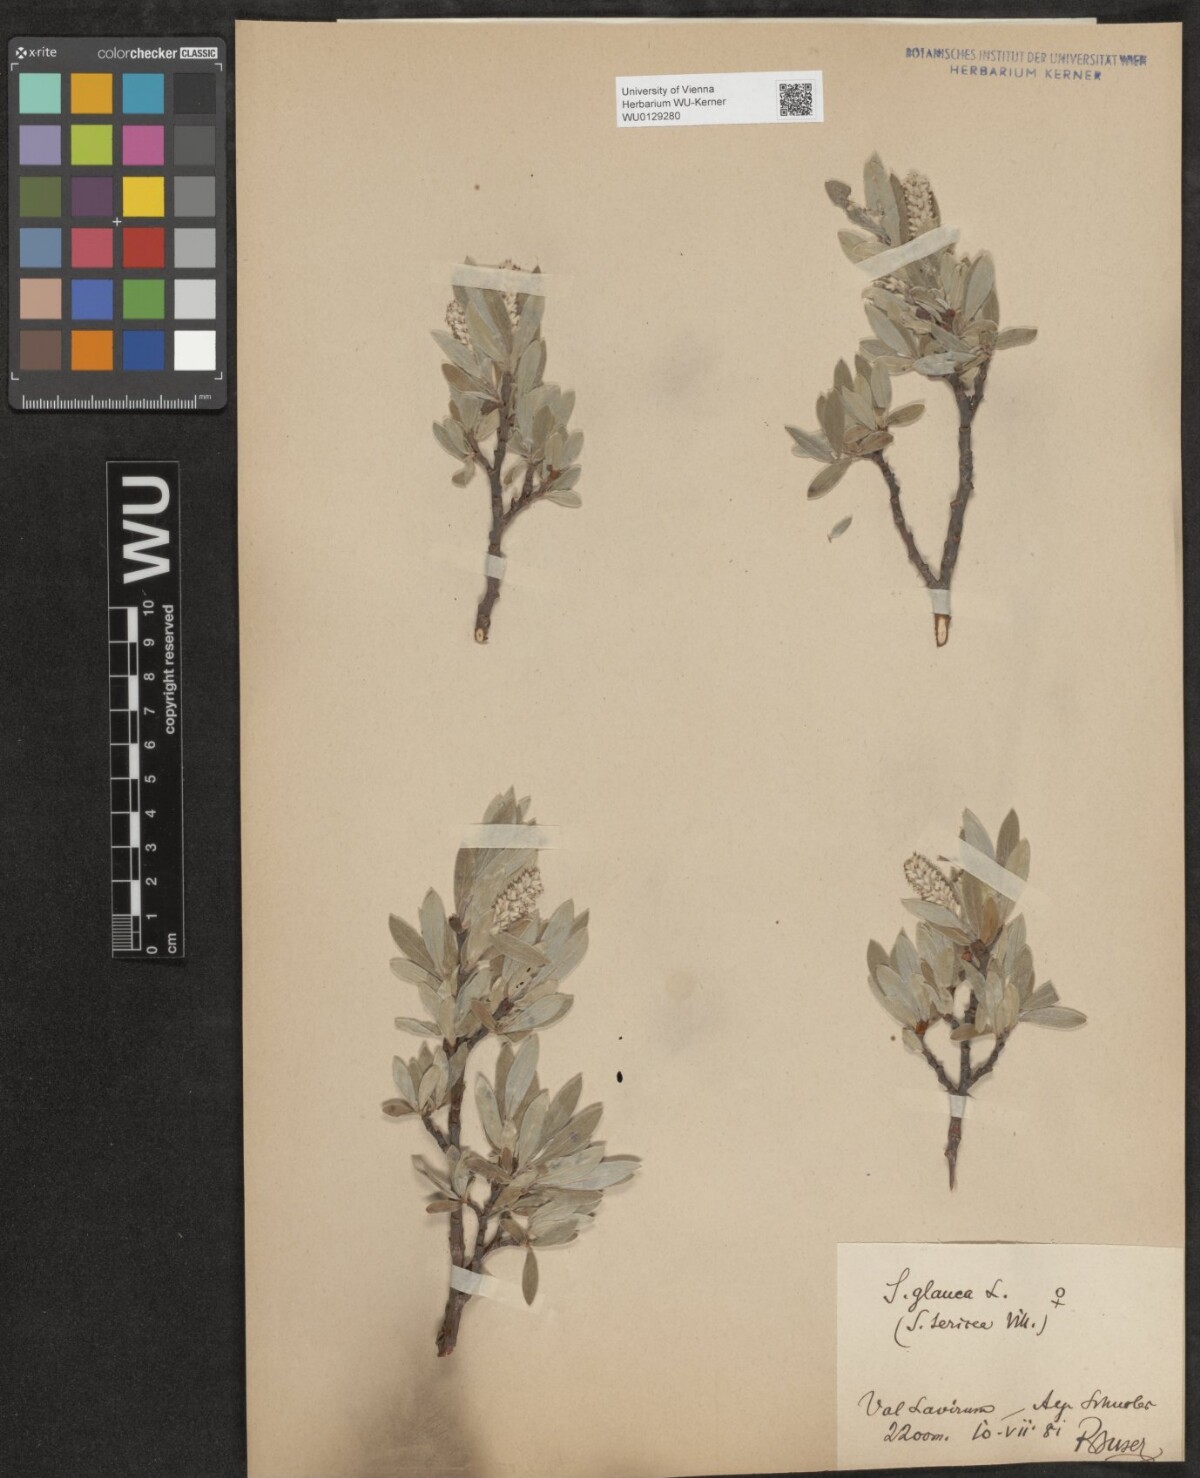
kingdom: Plantae
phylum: Tracheophyta
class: Magnoliopsida
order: Malpighiales
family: Salicaceae
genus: Salix
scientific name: Salix glauca
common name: Glaucous willow
